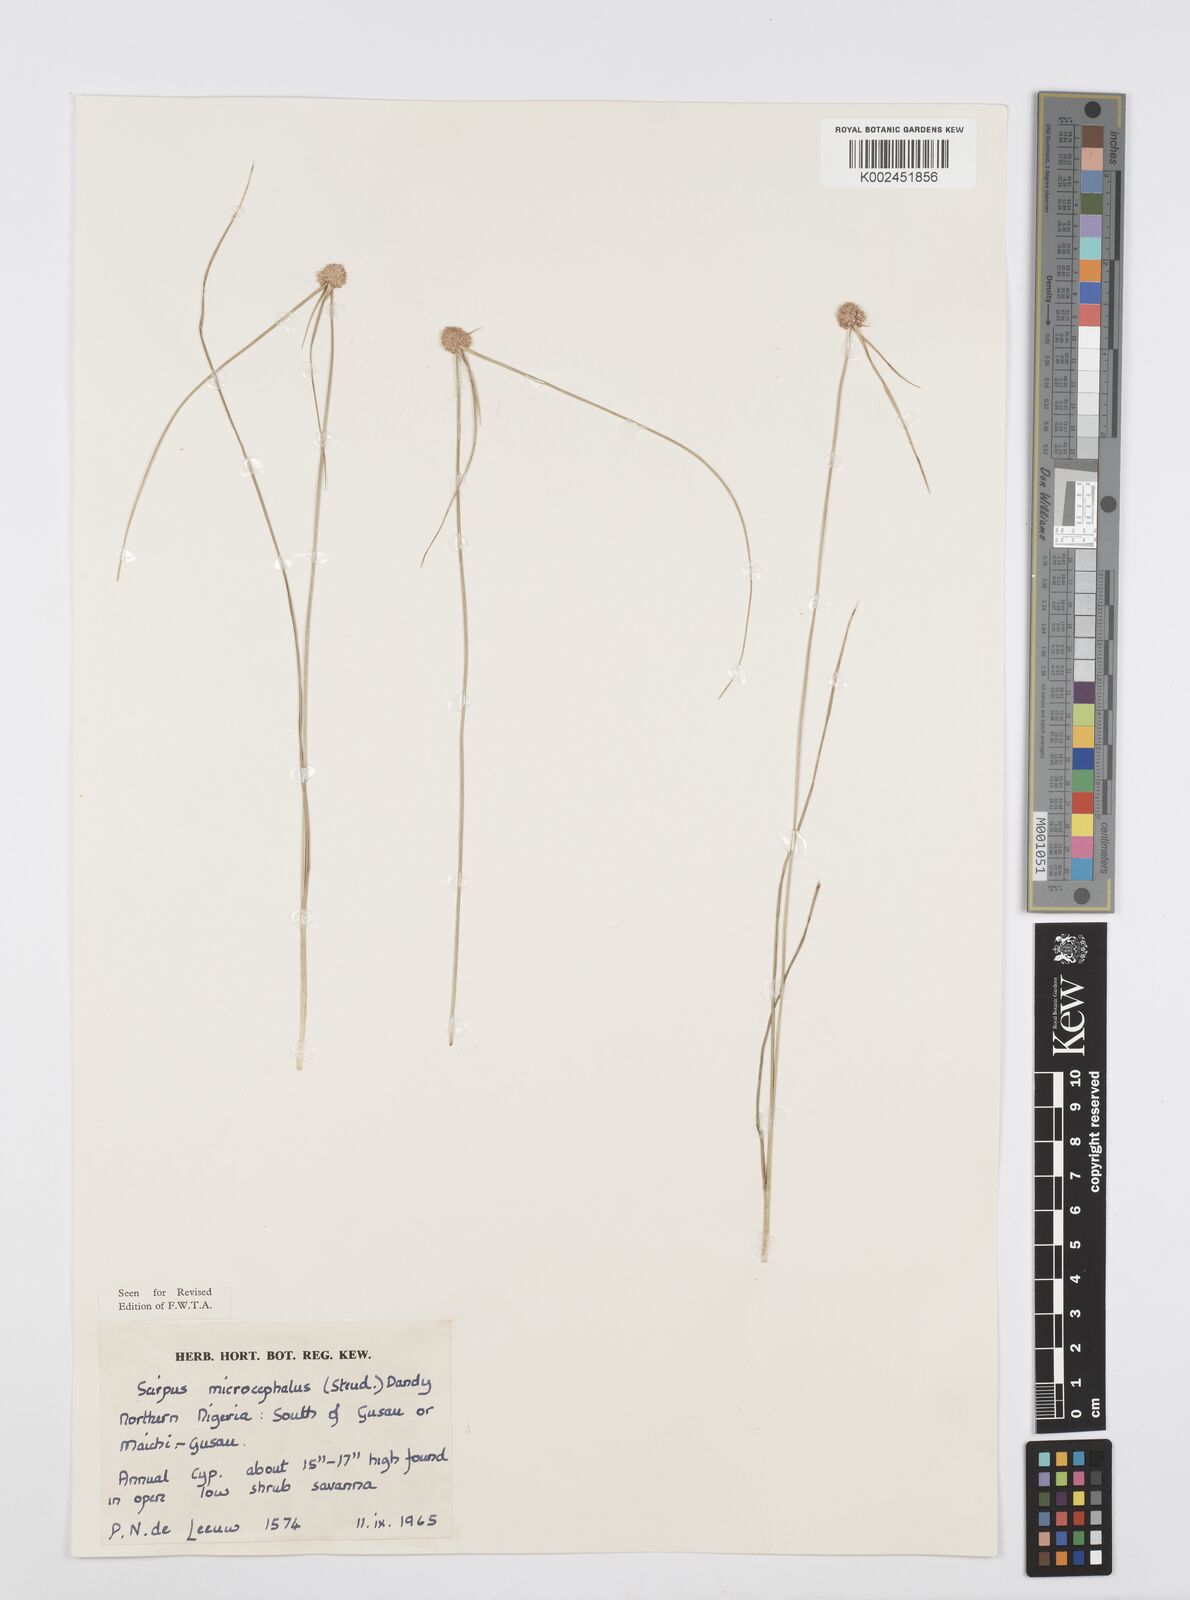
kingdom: Plantae
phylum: Tracheophyta
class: Liliopsida
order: Poales
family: Cyperaceae
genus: Cyperus
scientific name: Cyperus microcephalus
